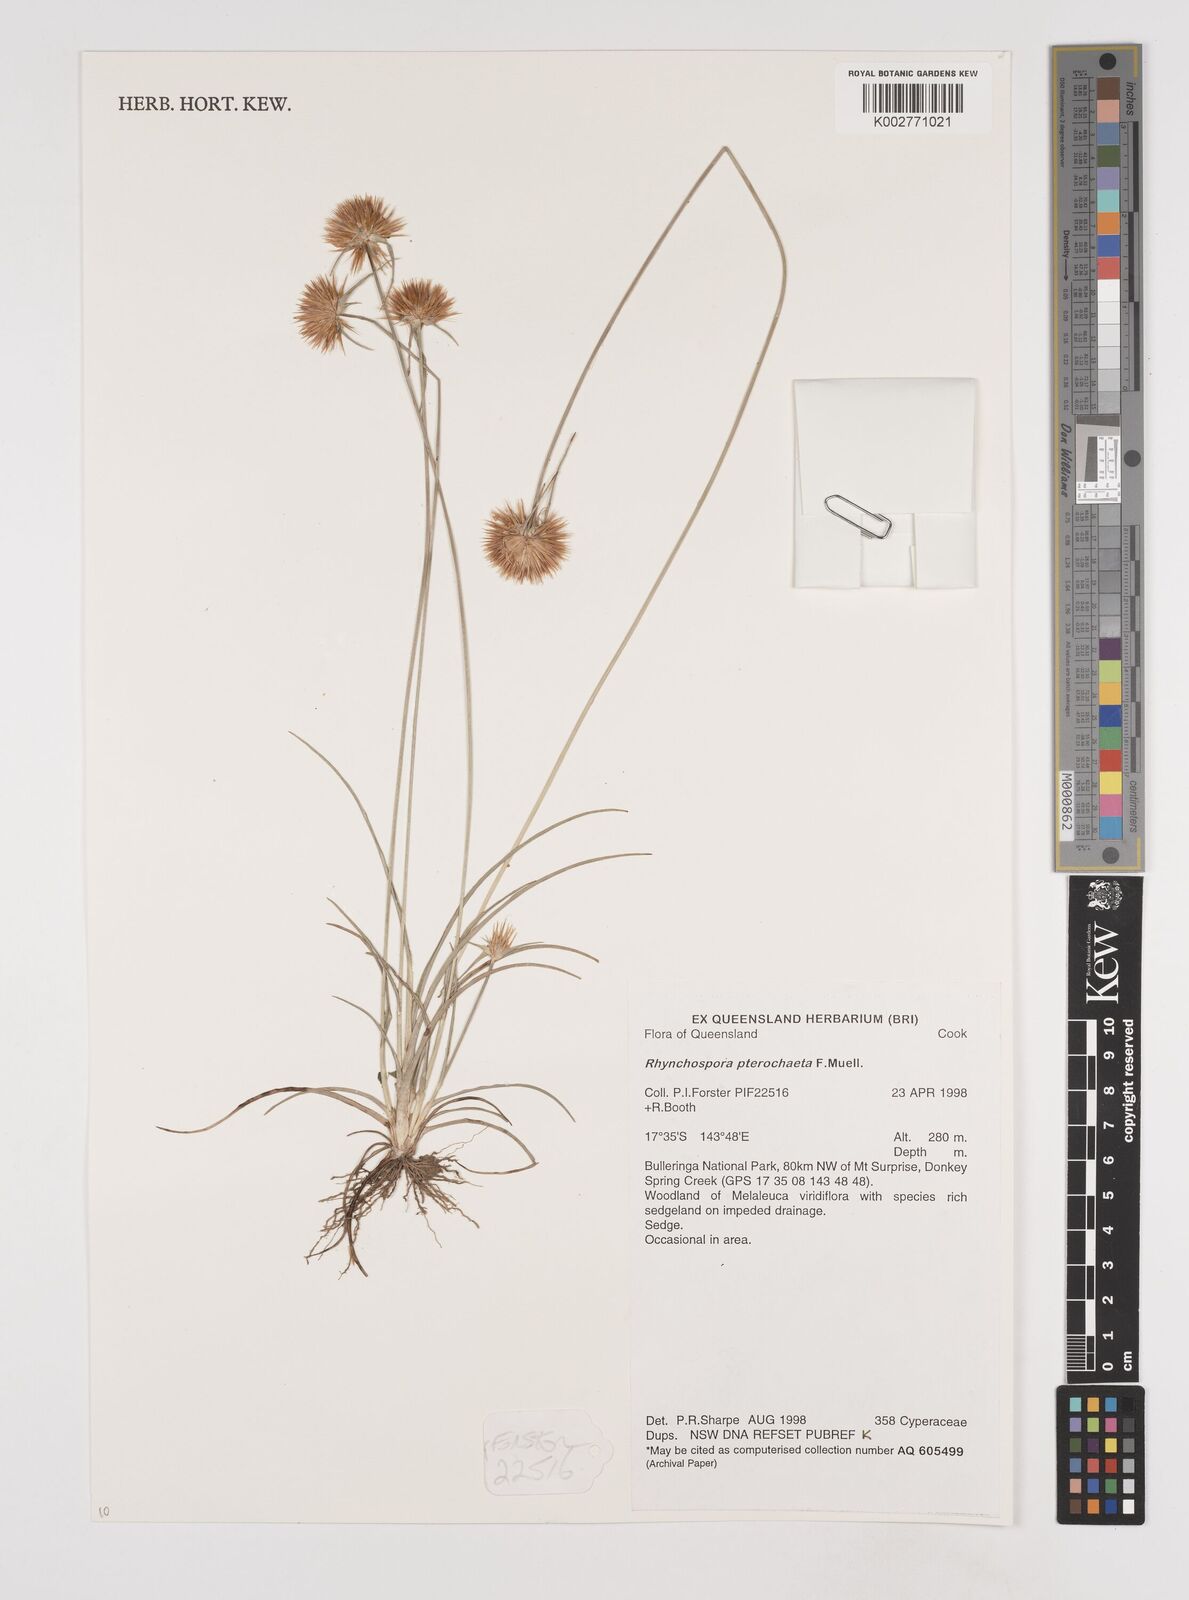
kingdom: Plantae
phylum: Tracheophyta
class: Liliopsida
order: Poales
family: Cyperaceae
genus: Rhynchospora
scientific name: Rhynchospora pterochaeta
